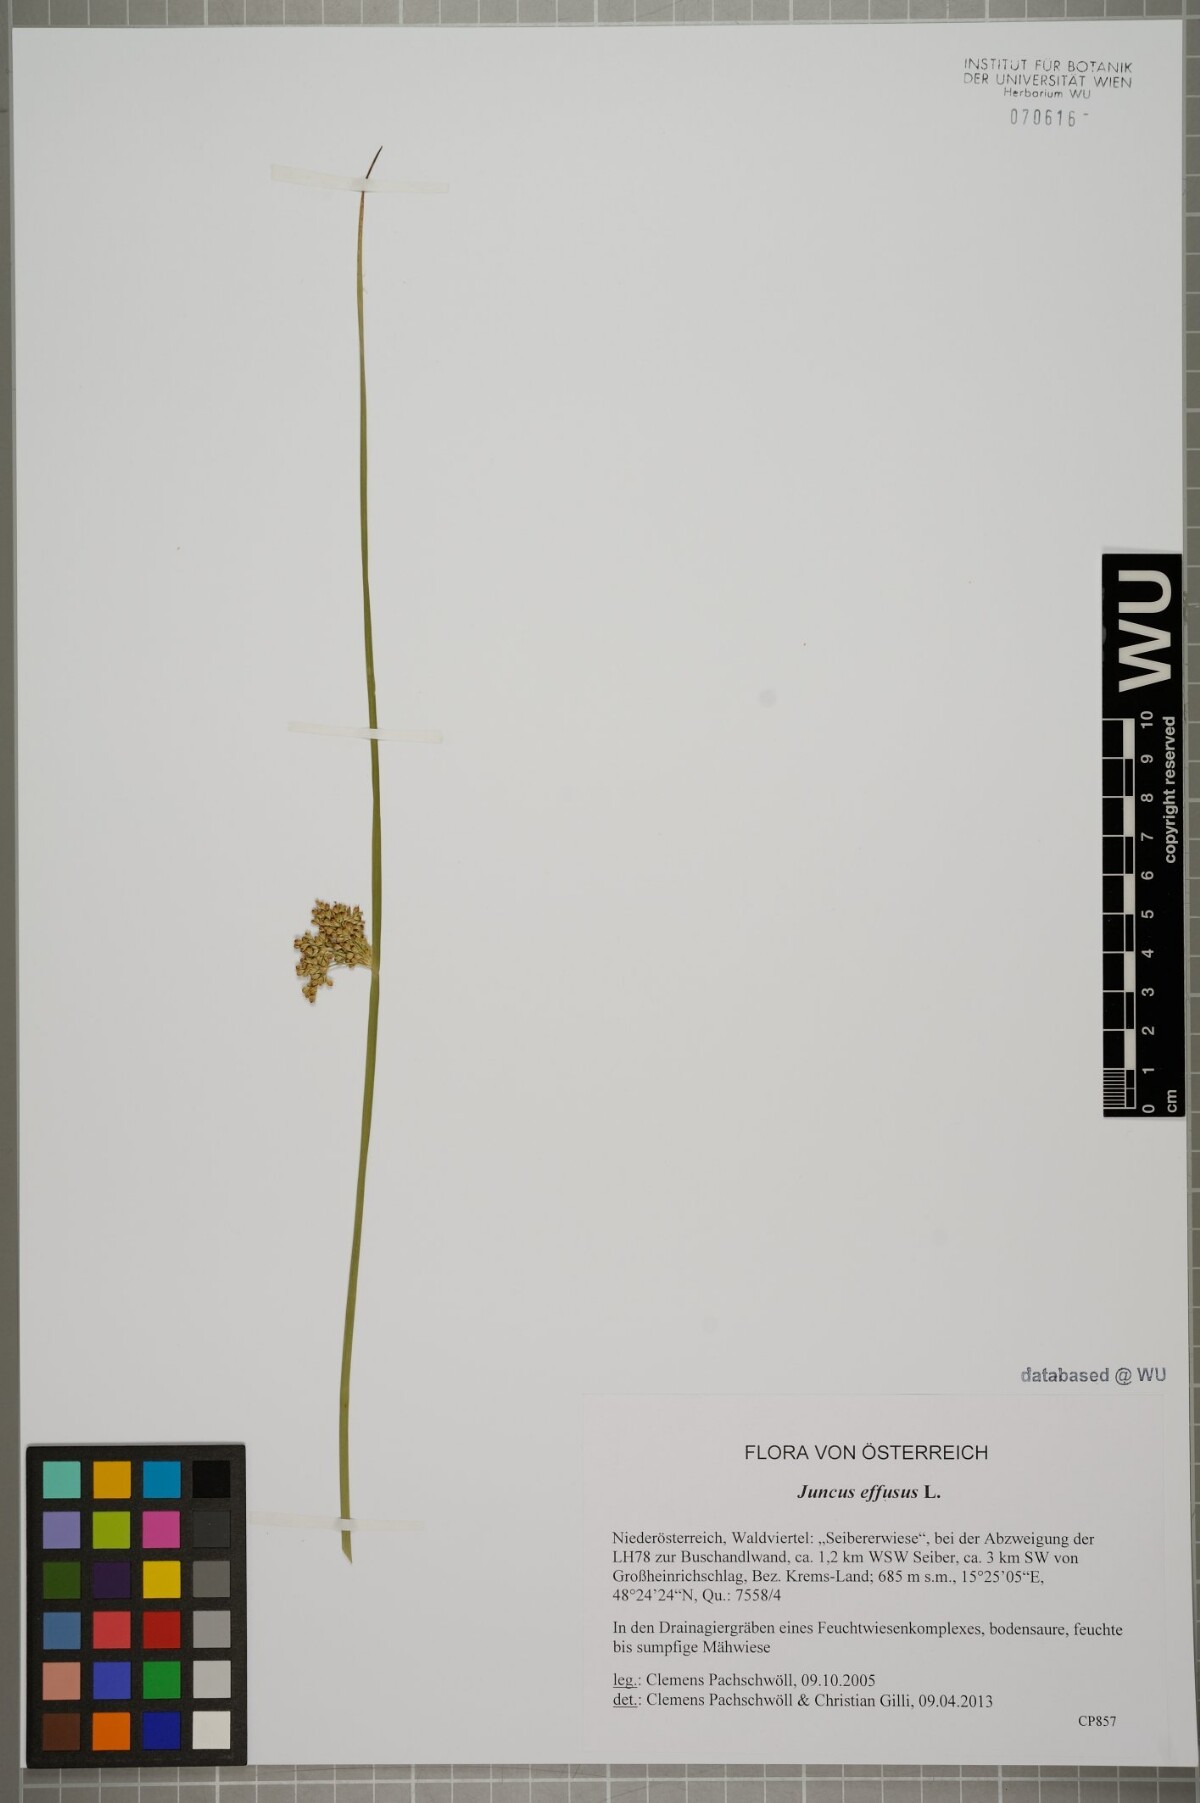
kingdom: Plantae
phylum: Tracheophyta
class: Liliopsida
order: Poales
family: Juncaceae
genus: Juncus
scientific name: Juncus effusus
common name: Soft rush
